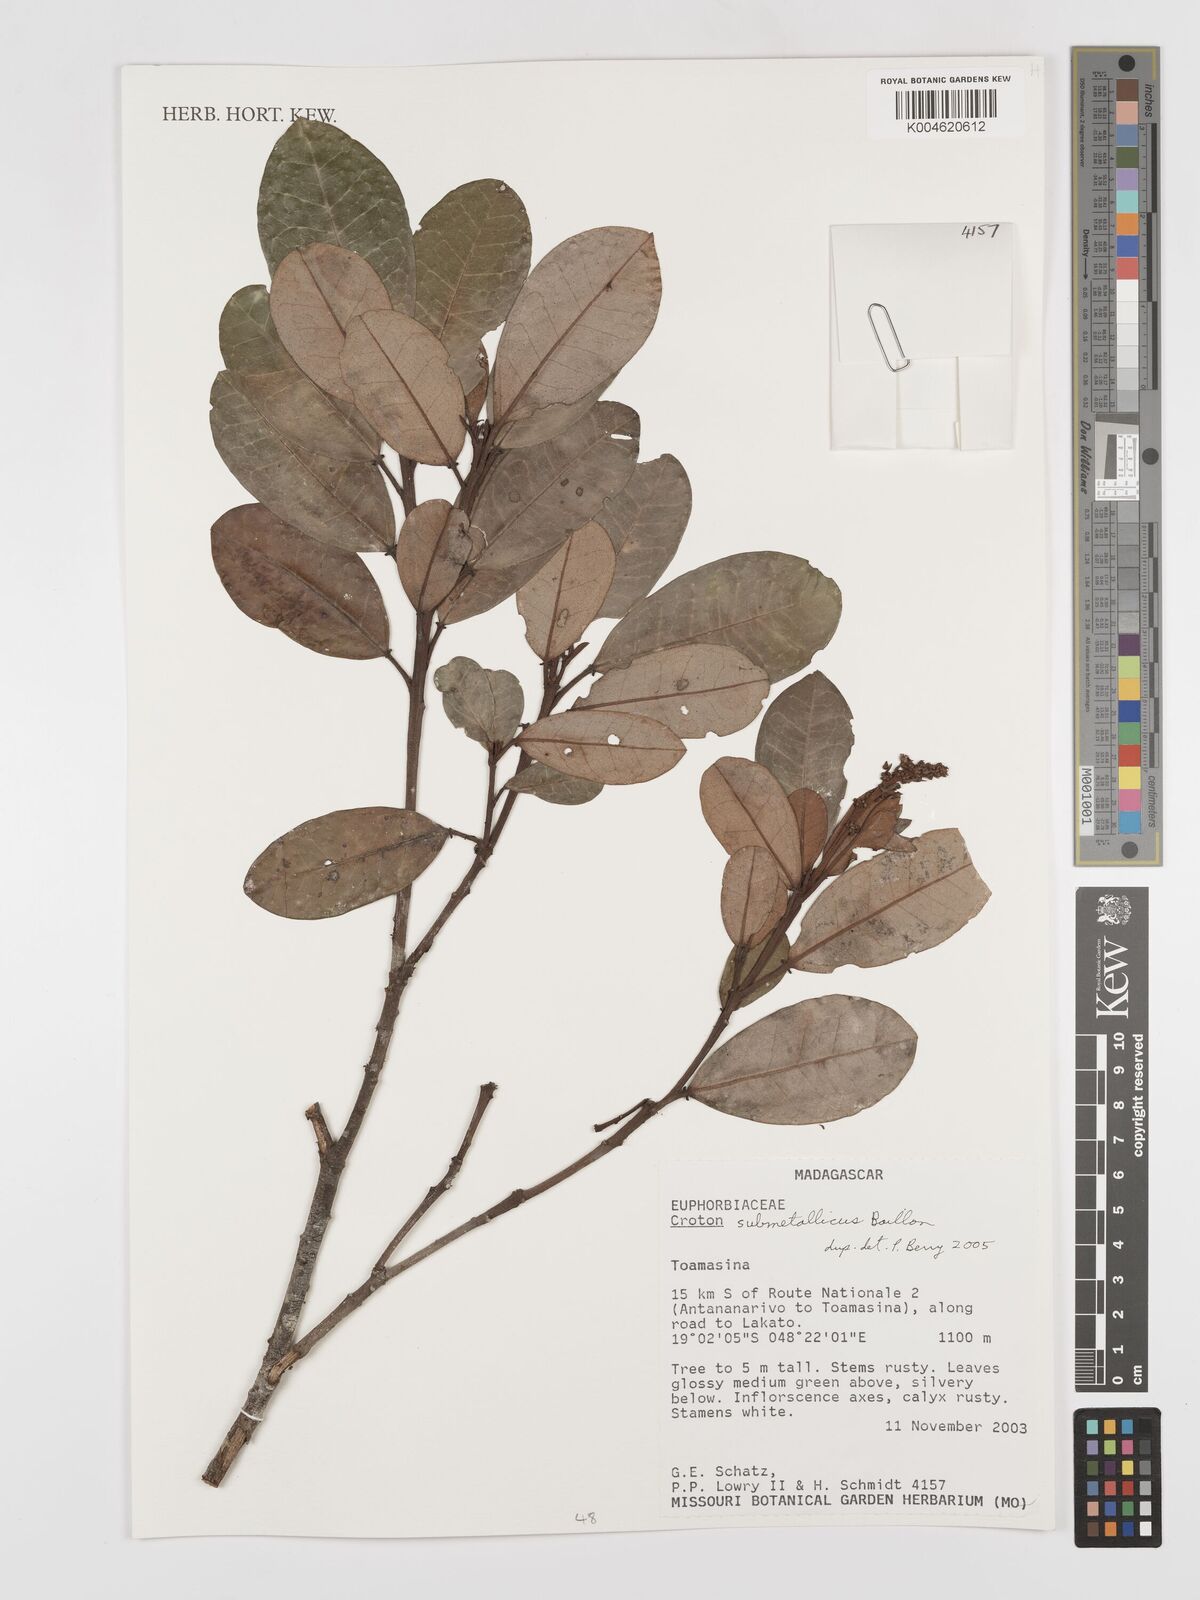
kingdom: Plantae
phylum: Tracheophyta
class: Magnoliopsida
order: Malpighiales
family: Euphorbiaceae
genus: Croton
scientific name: Croton submetallicus
